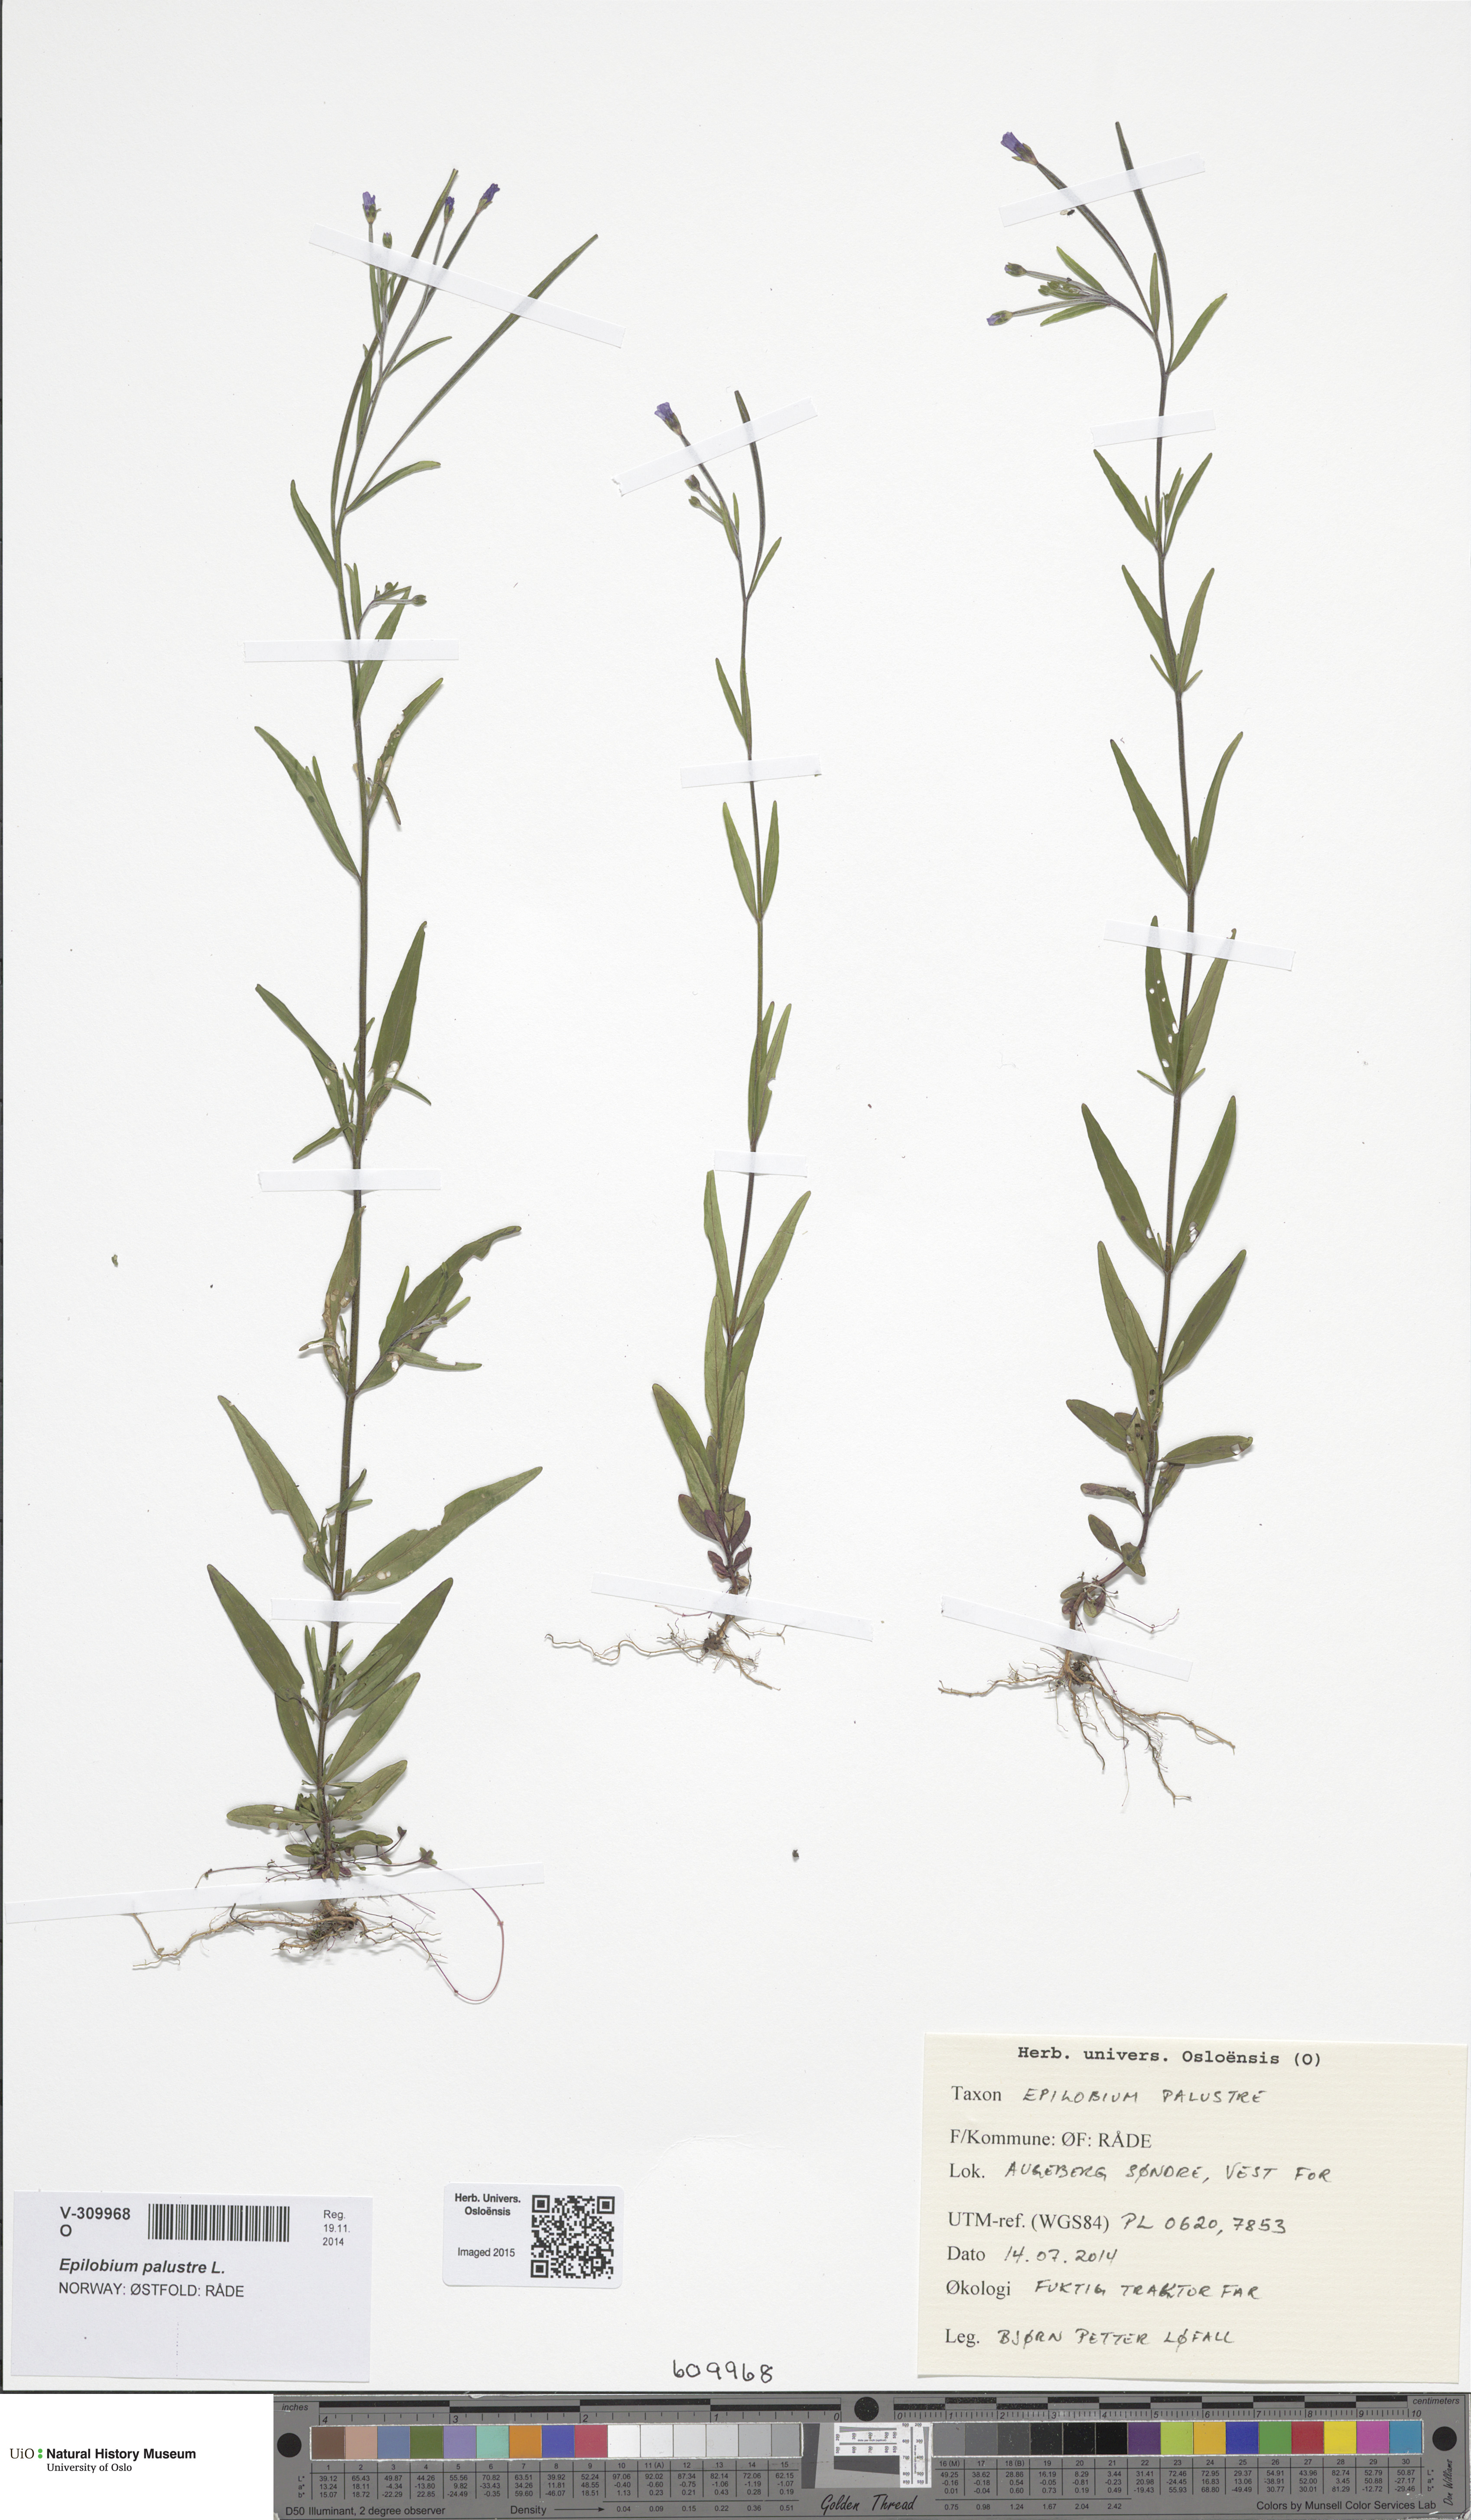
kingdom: Plantae
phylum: Tracheophyta
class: Magnoliopsida
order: Myrtales
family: Onagraceae
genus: Epilobium
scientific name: Epilobium palustre
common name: Marsh willowherb
